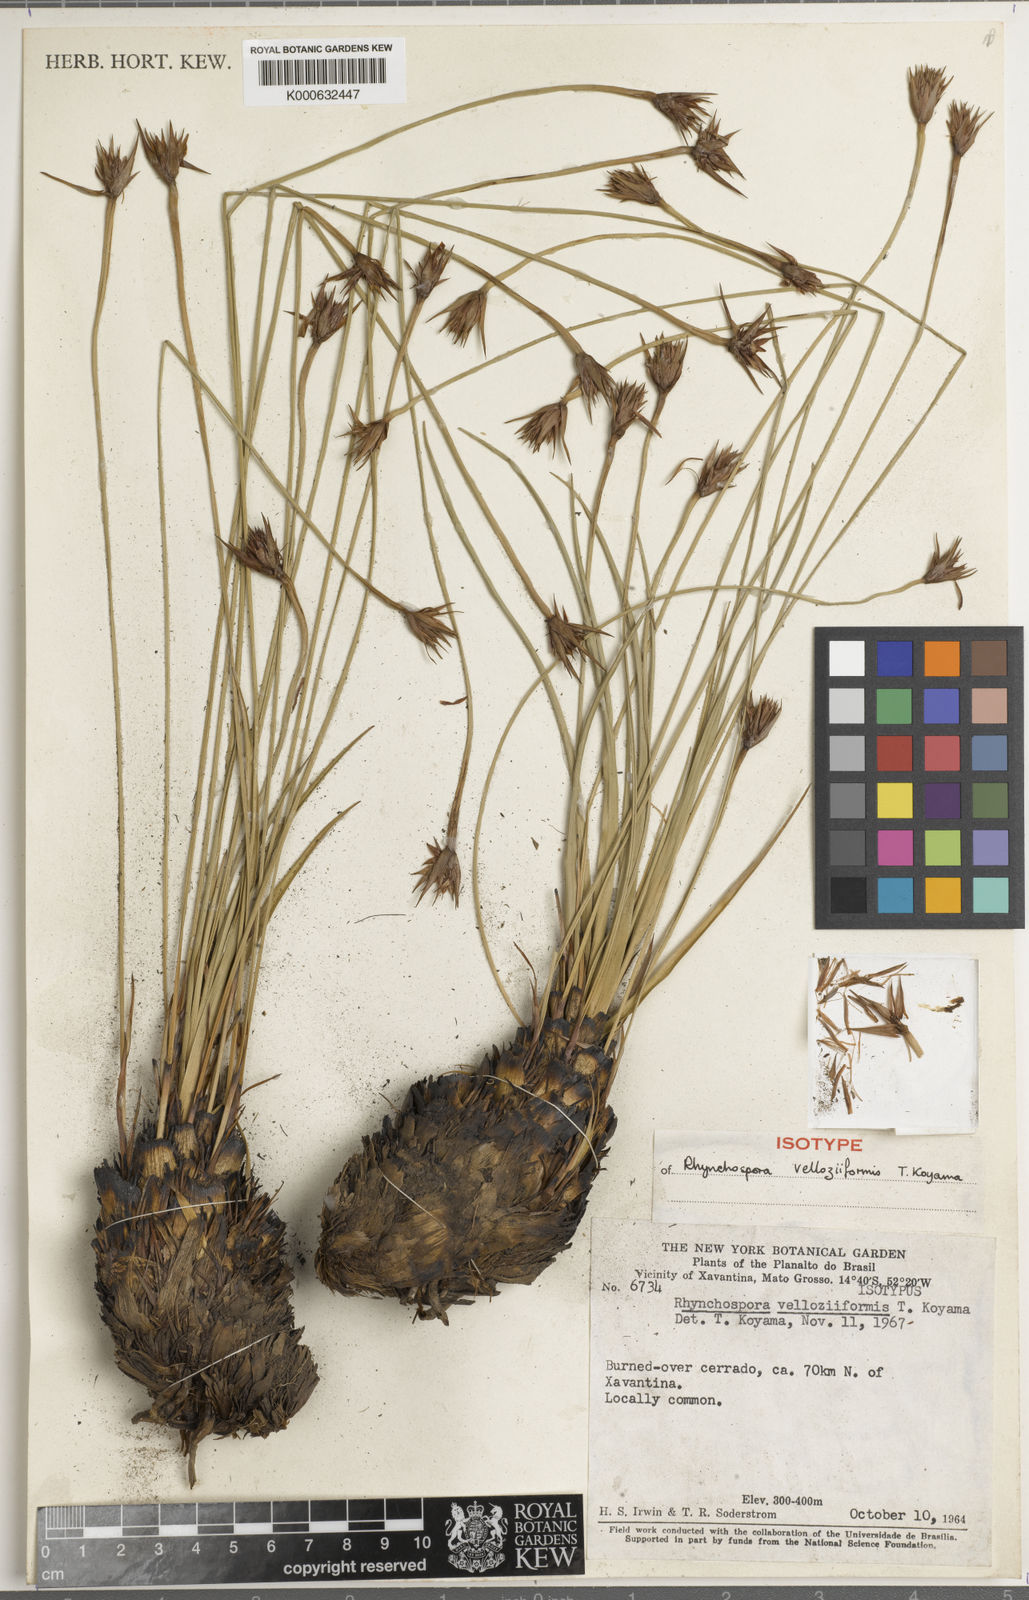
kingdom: Plantae
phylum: Tracheophyta
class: Liliopsida
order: Poales
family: Cyperaceae
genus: Rhynchospora
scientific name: Rhynchospora confusa
